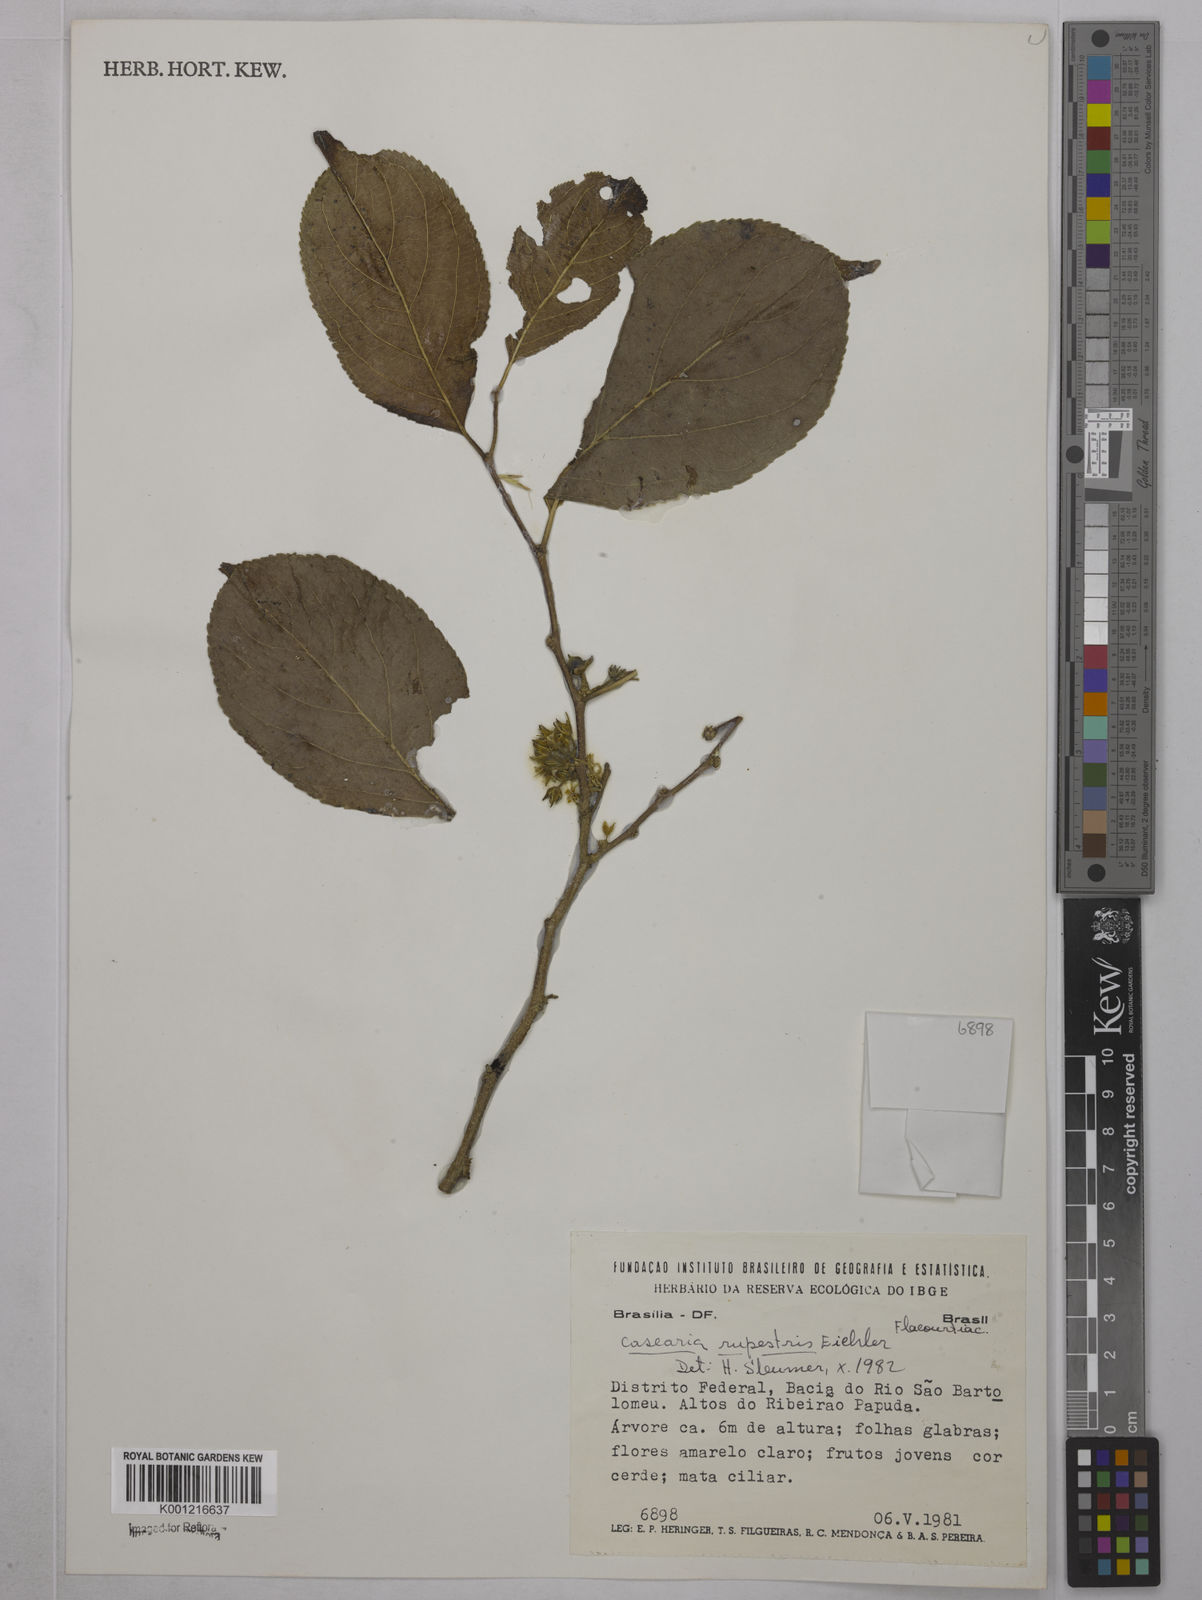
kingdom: Plantae
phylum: Tracheophyta
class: Magnoliopsida
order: Malpighiales
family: Salicaceae
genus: Casearia
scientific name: Casearia rupestris
